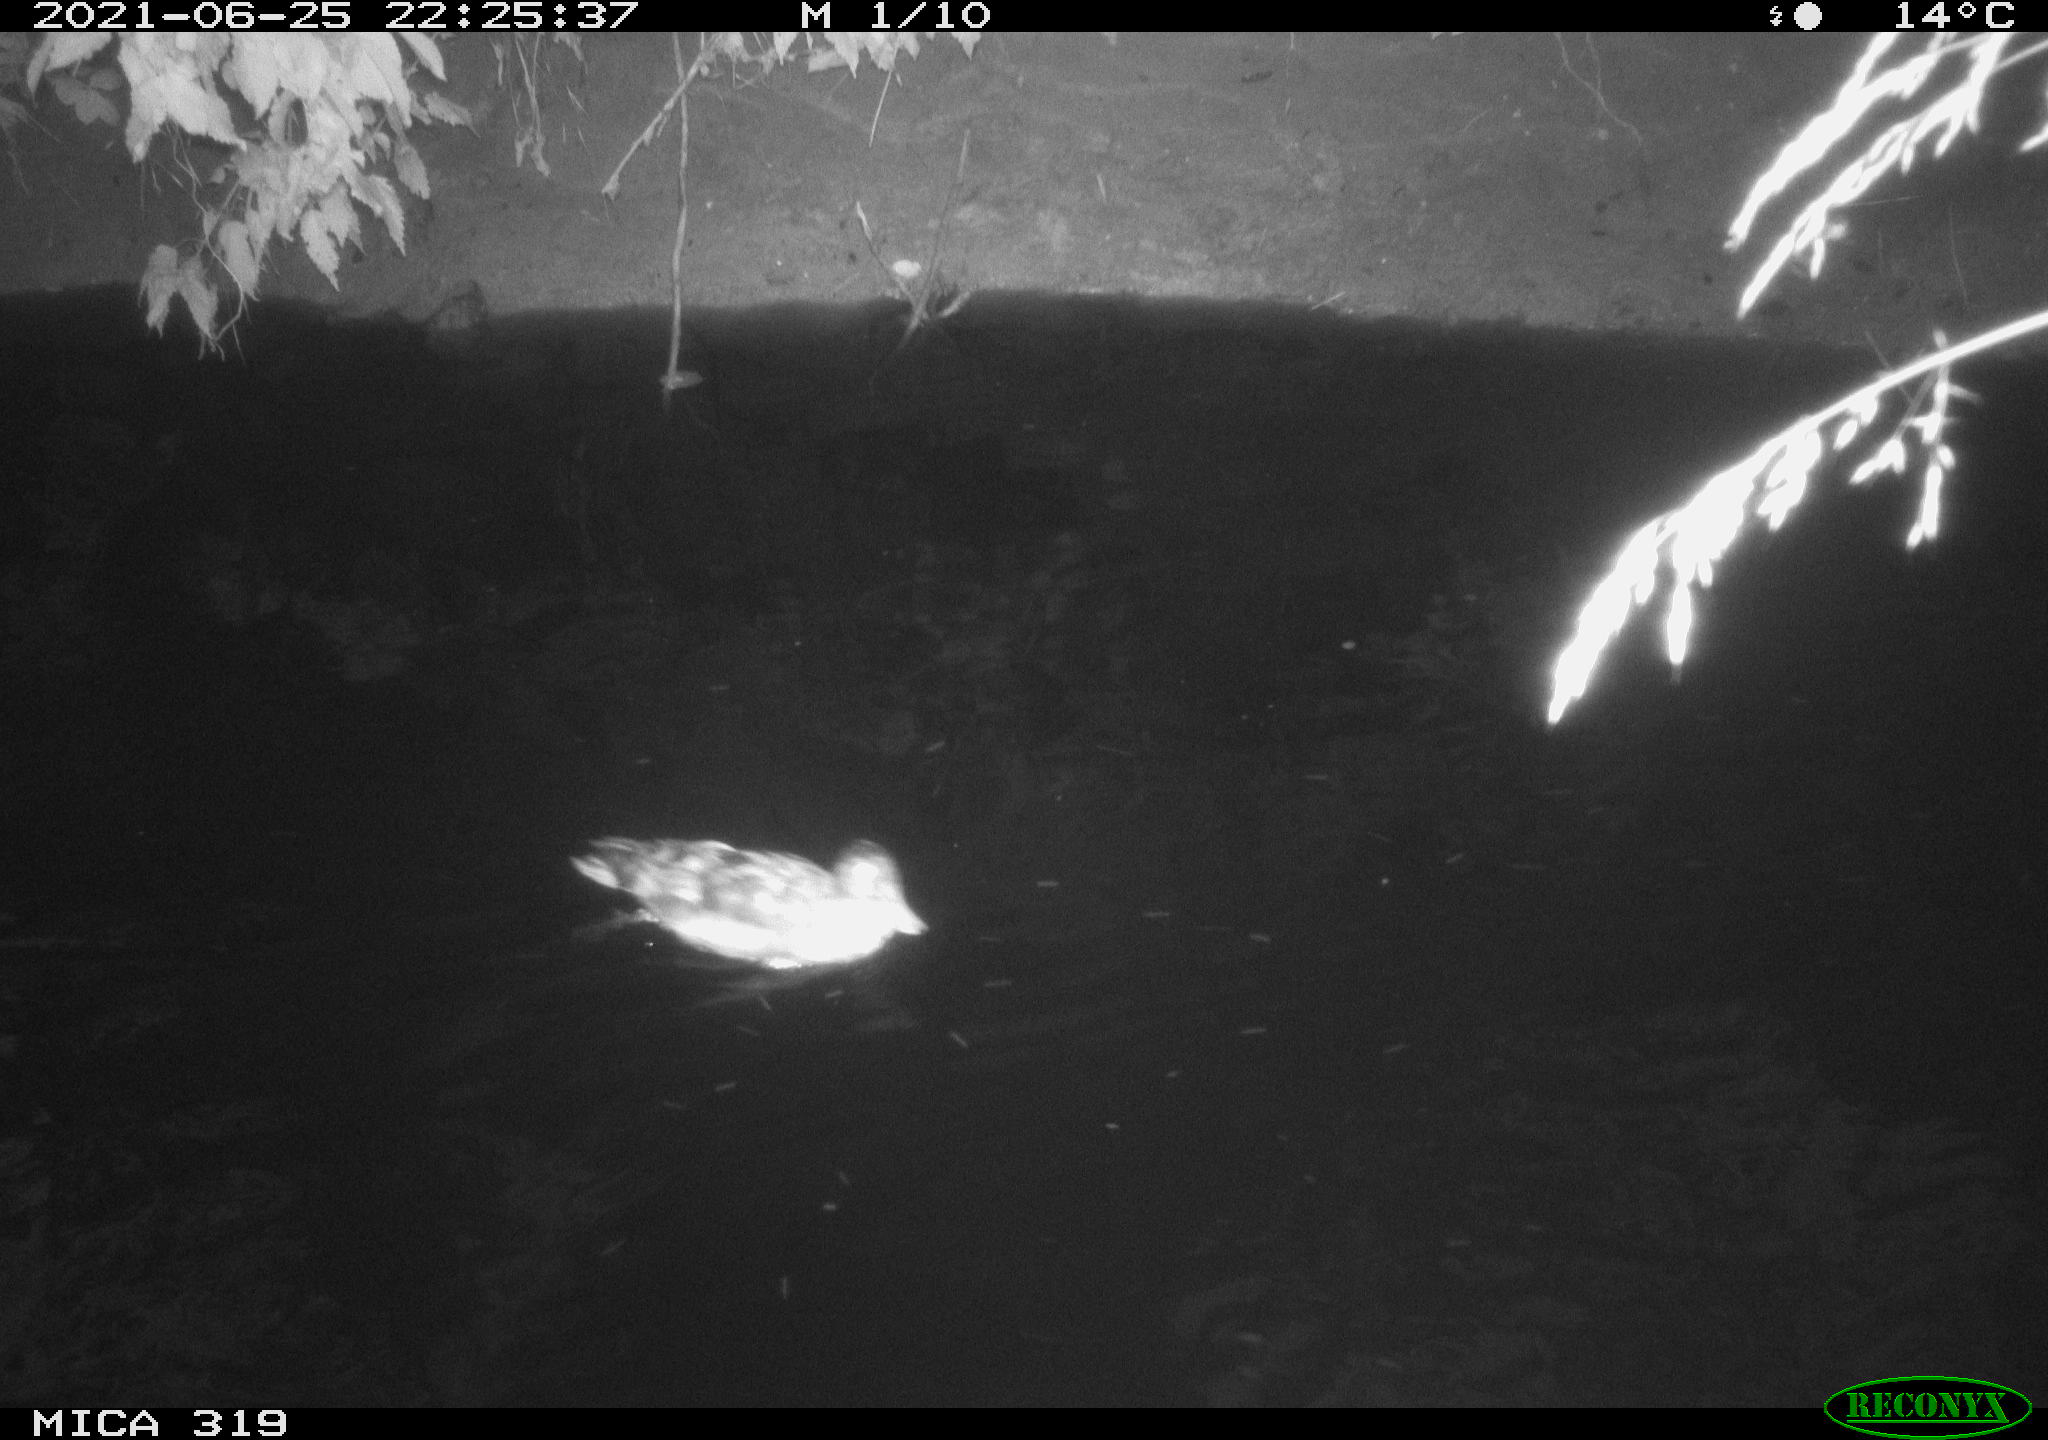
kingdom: Animalia
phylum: Chordata
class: Aves
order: Anseriformes
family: Anatidae
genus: Anas
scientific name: Anas platyrhynchos
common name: Mallard
